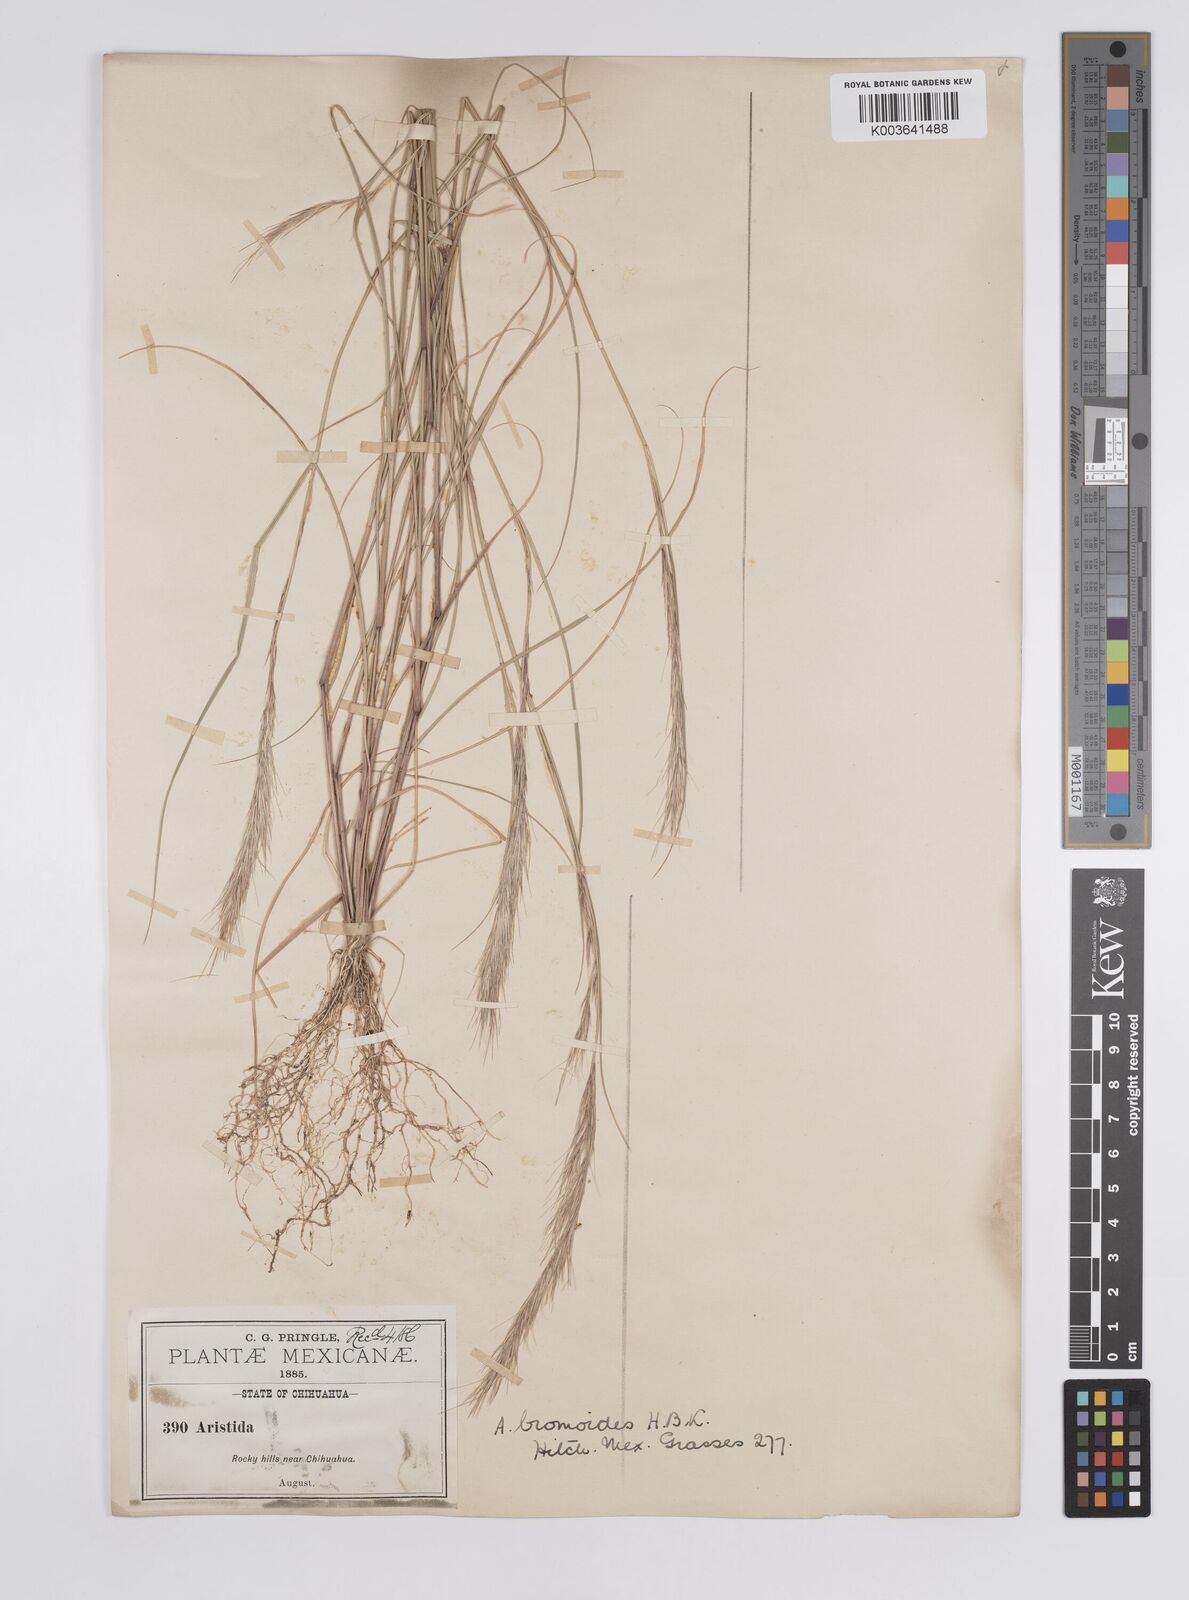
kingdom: Plantae
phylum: Tracheophyta
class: Liliopsida
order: Poales
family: Poaceae
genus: Aristida
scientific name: Aristida adscensionis
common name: Sixweeks threeawn
